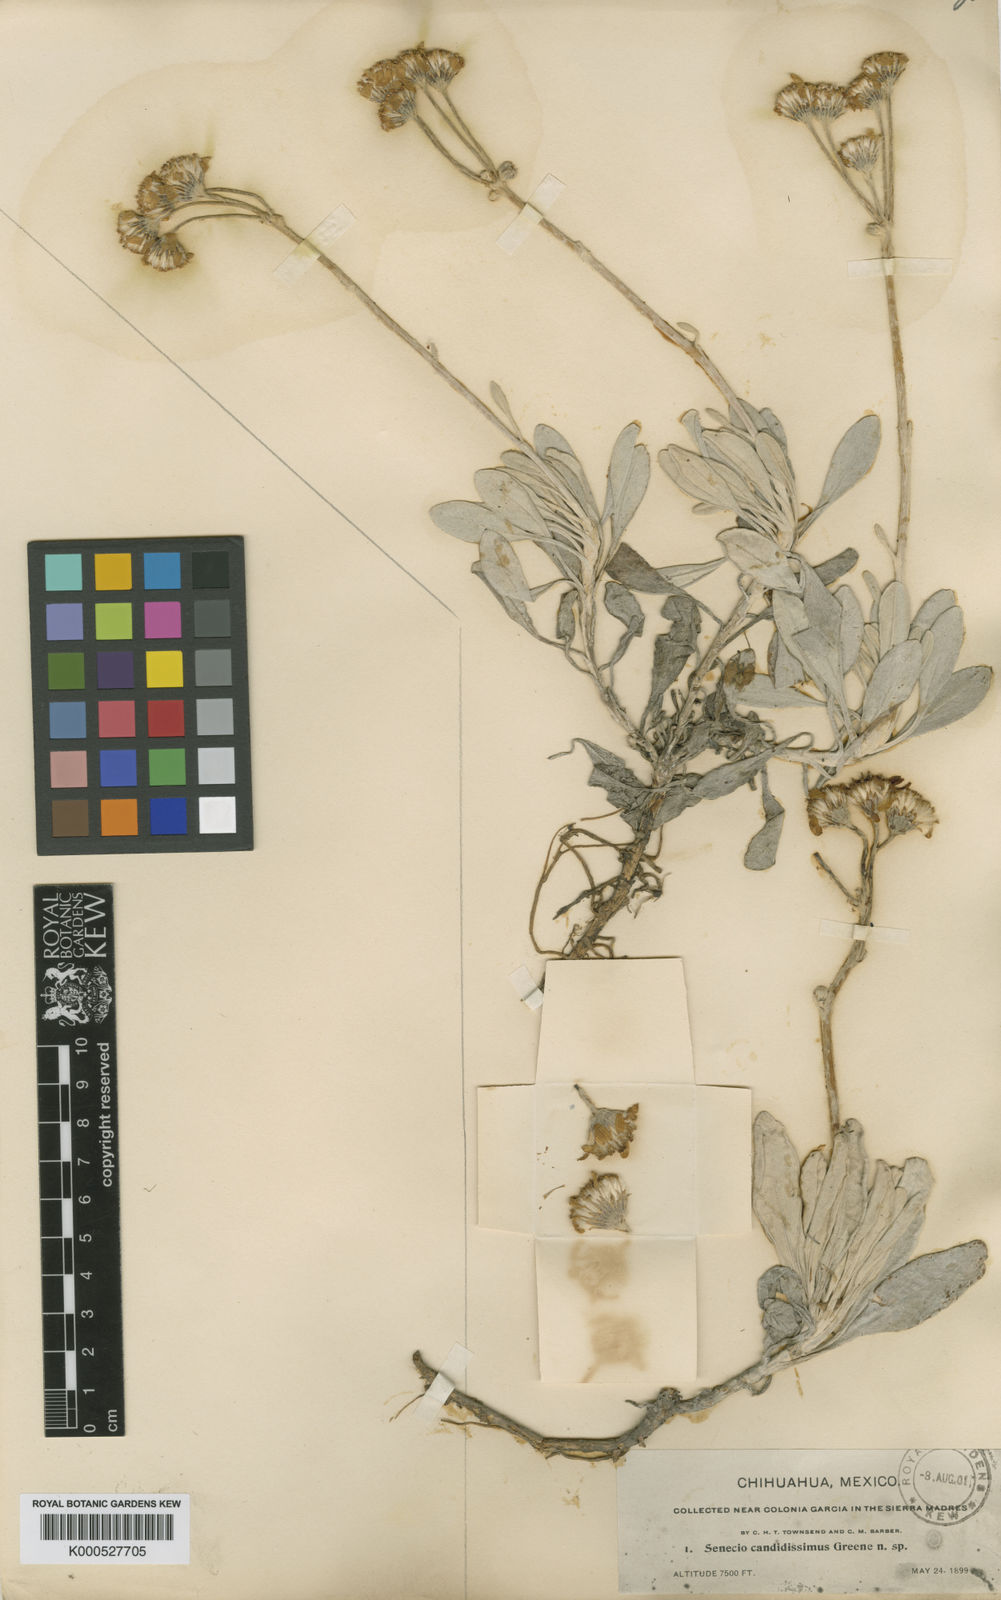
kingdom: Plantae
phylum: Tracheophyta
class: Magnoliopsida
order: Asterales
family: Asteraceae
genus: Packera
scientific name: Packera
